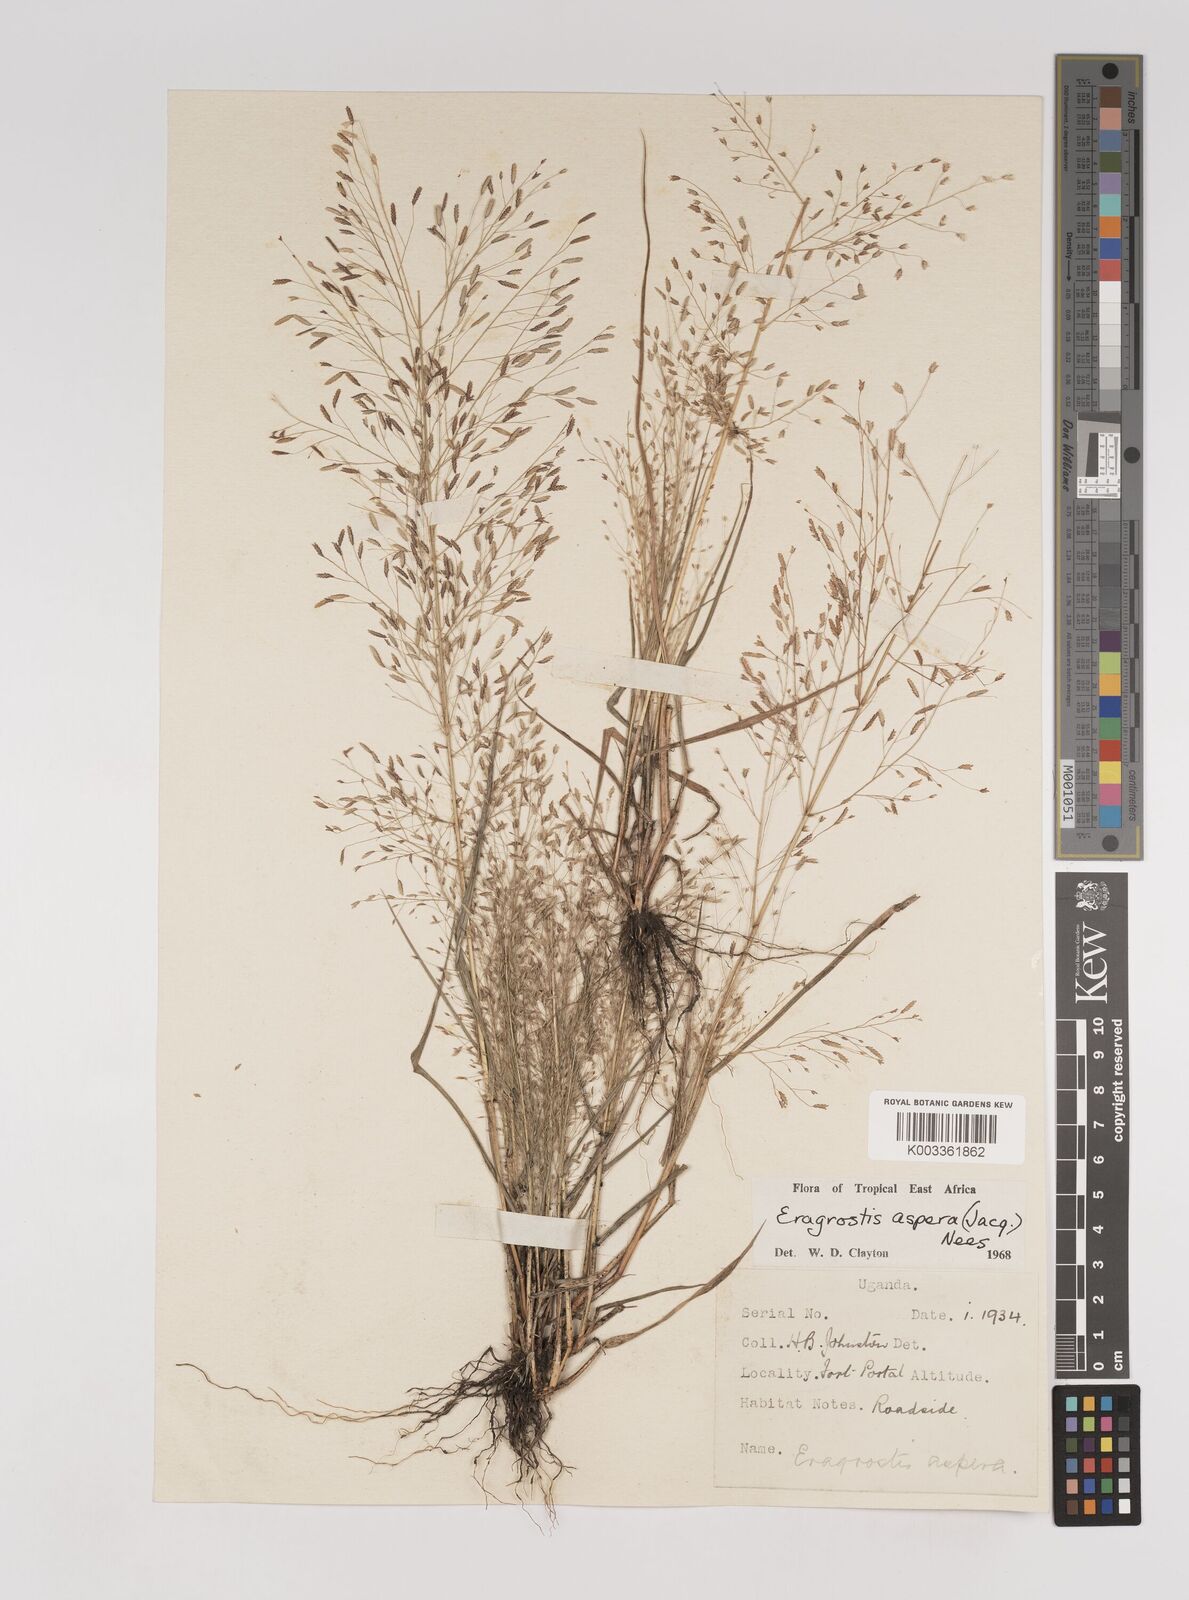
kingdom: Plantae
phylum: Tracheophyta
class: Liliopsida
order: Poales
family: Poaceae
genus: Eragrostis
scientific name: Eragrostis aspera
